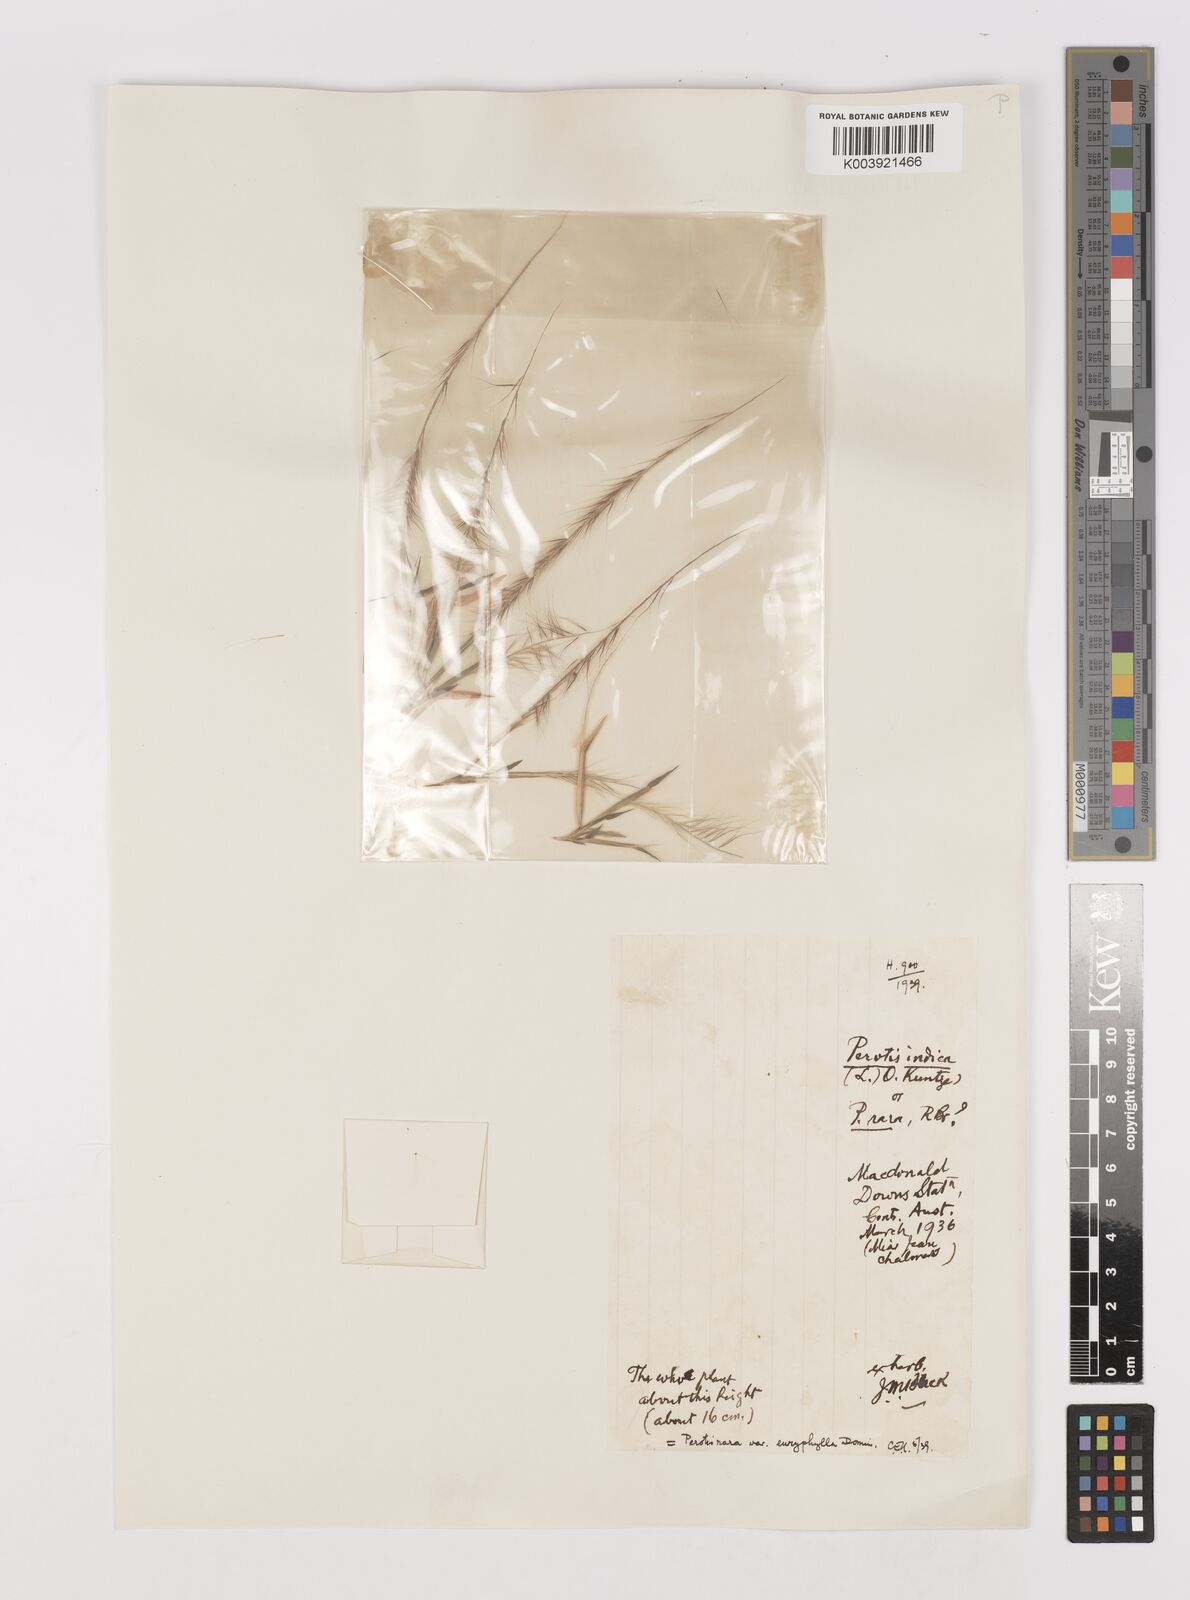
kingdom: Plantae
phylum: Tracheophyta
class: Liliopsida
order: Poales
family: Poaceae
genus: Perotis
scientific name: Perotis rara
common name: Comet grass
